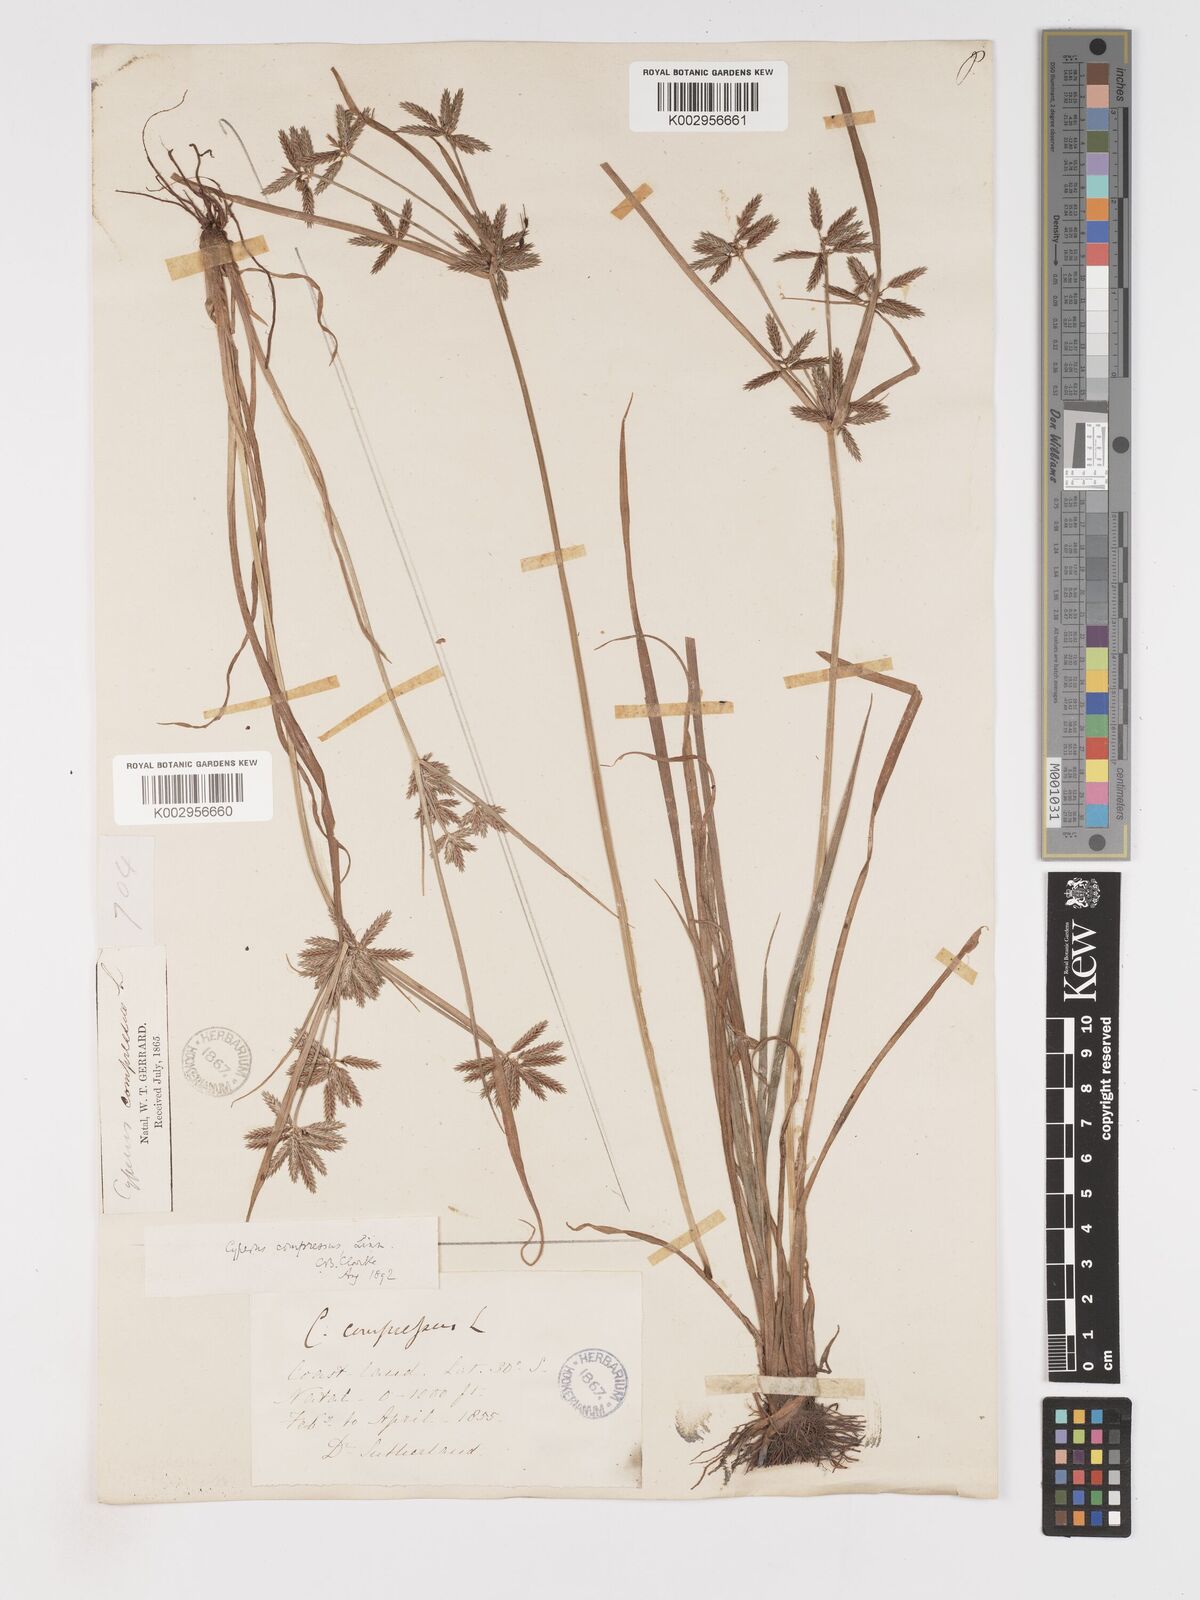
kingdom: Plantae
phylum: Tracheophyta
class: Liliopsida
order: Poales
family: Cyperaceae
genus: Cyperus
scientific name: Cyperus compressus
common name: Poorland flatsedge
